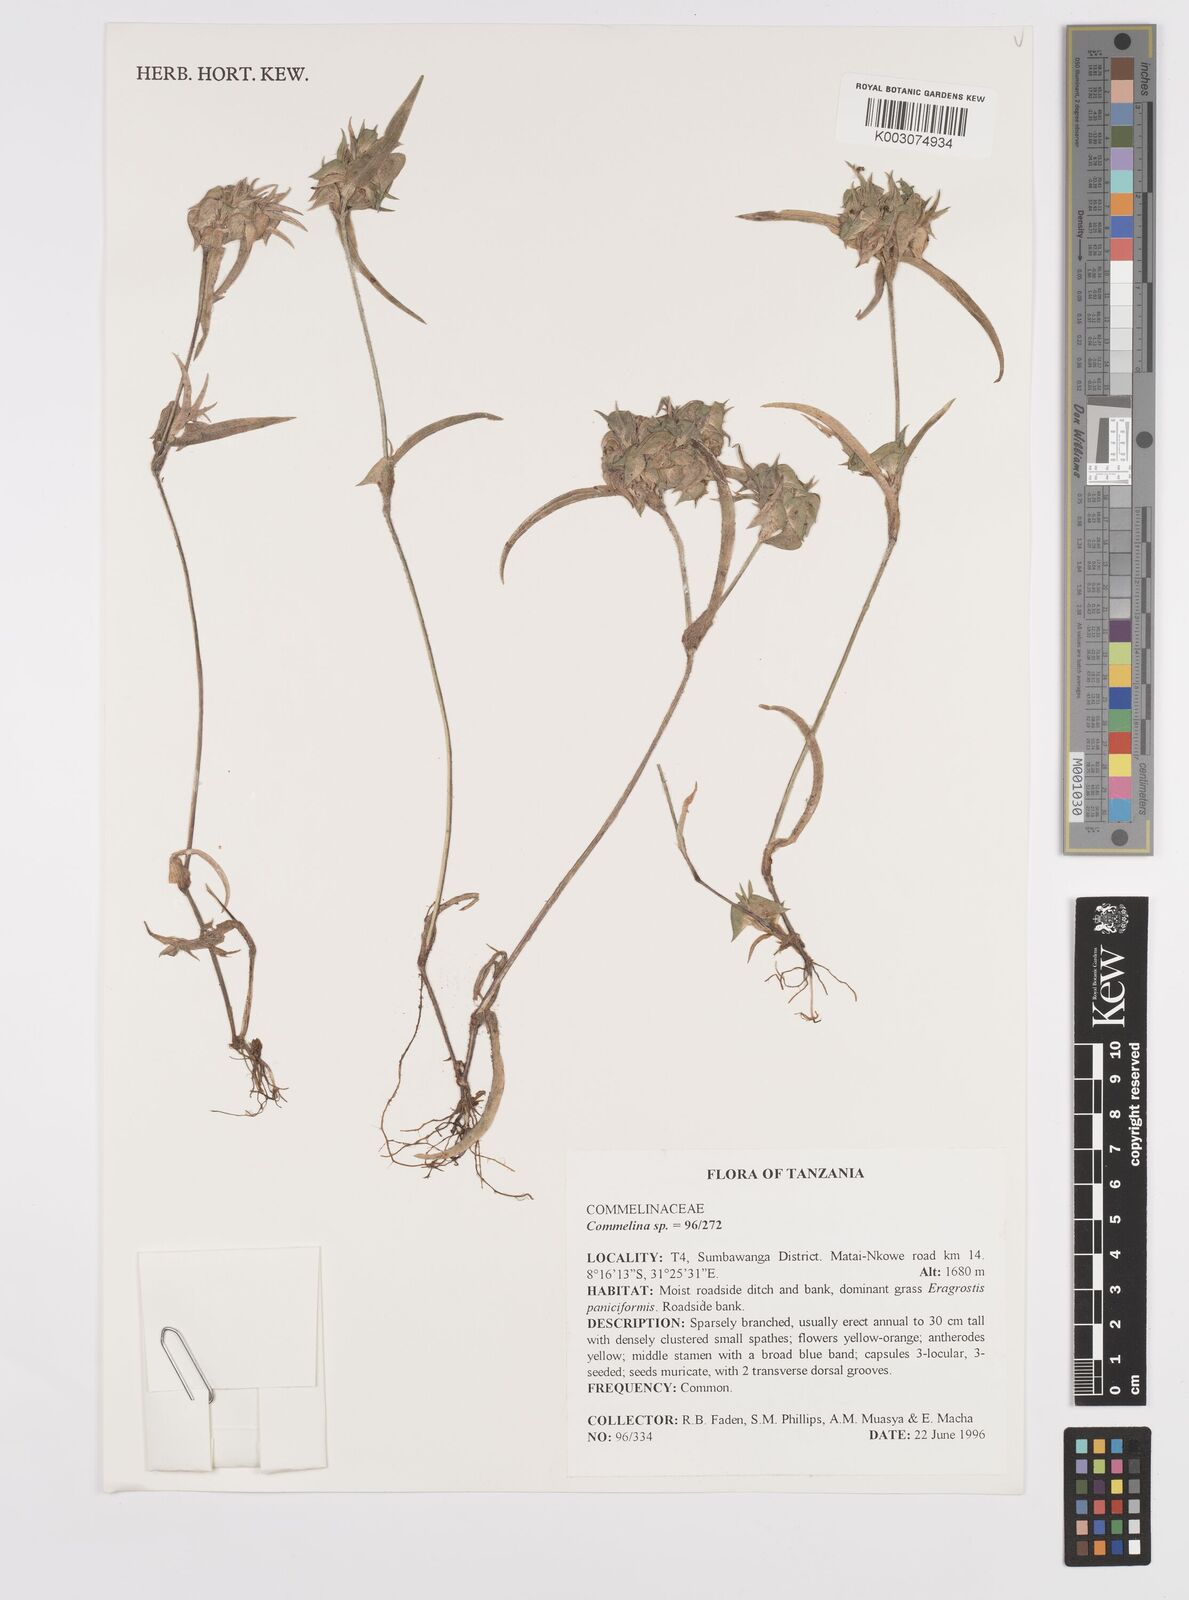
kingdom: Plantae
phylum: Tracheophyta
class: Liliopsida
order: Commelinales
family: Commelinaceae
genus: Commelina
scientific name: Commelina nigritana
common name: African dayflower
